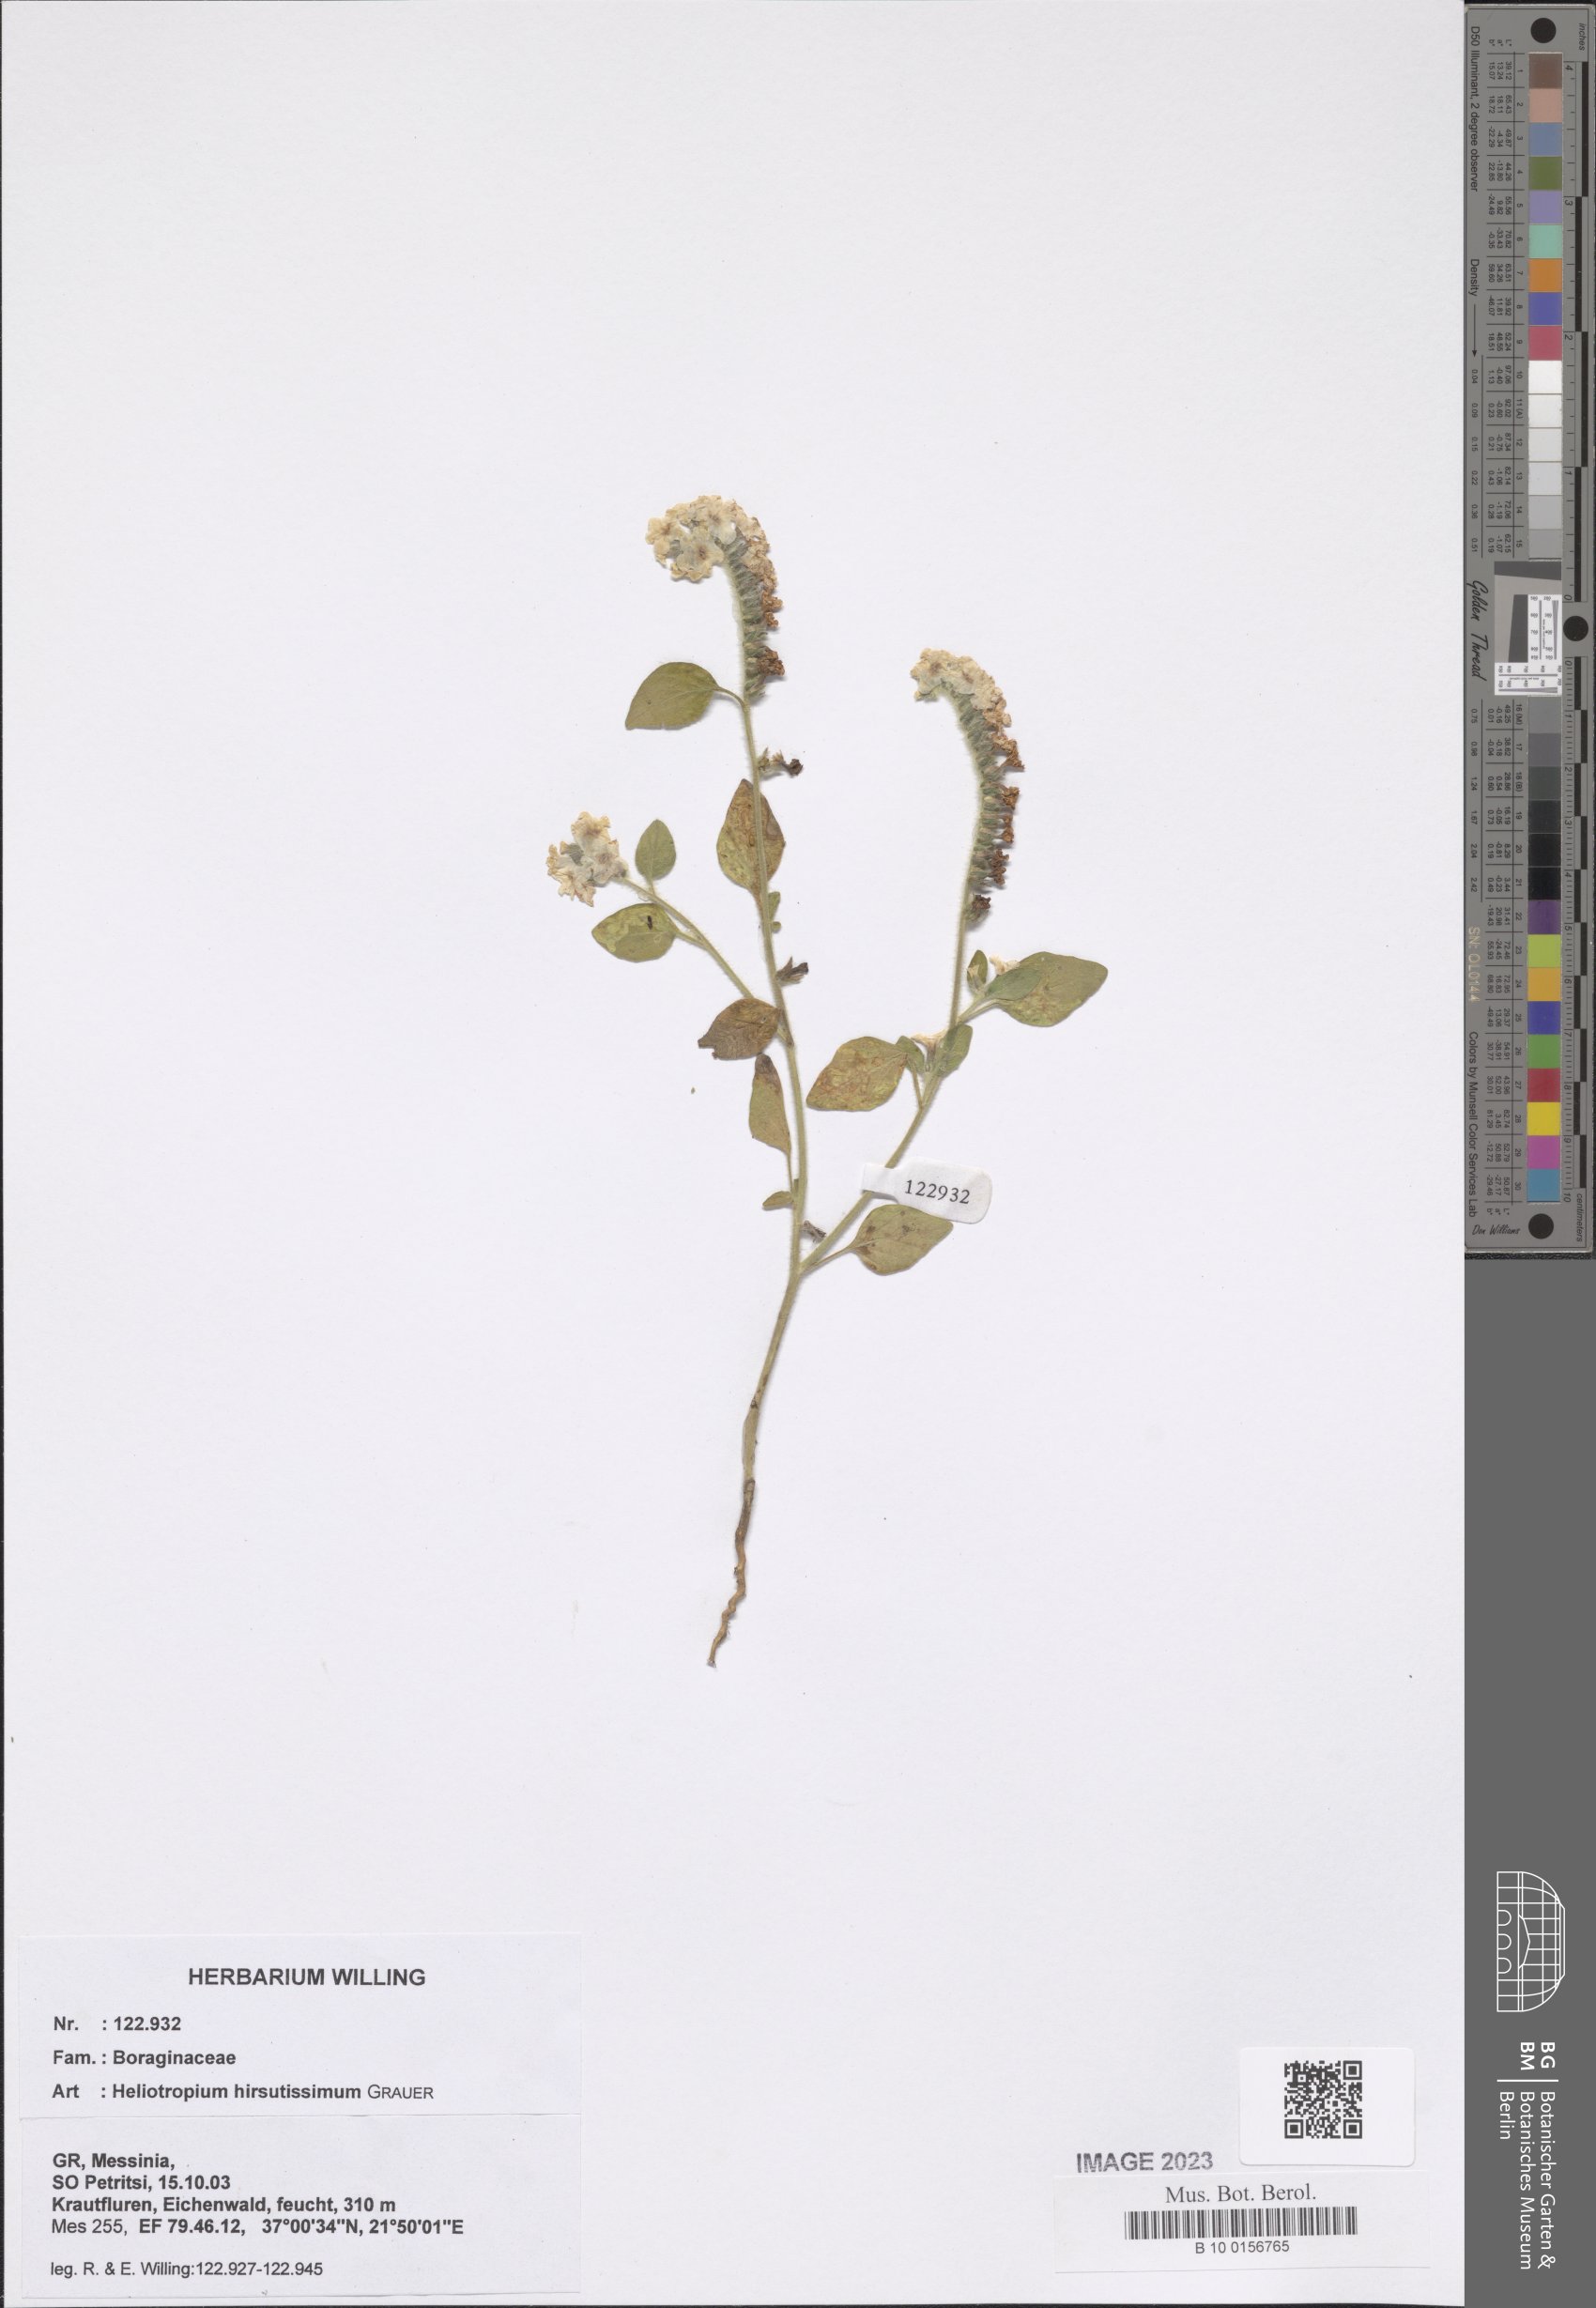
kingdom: Plantae
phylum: Tracheophyta
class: Magnoliopsida
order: Boraginales
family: Heliotropiaceae
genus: Heliotropium
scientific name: Heliotropium hirsutissimum
